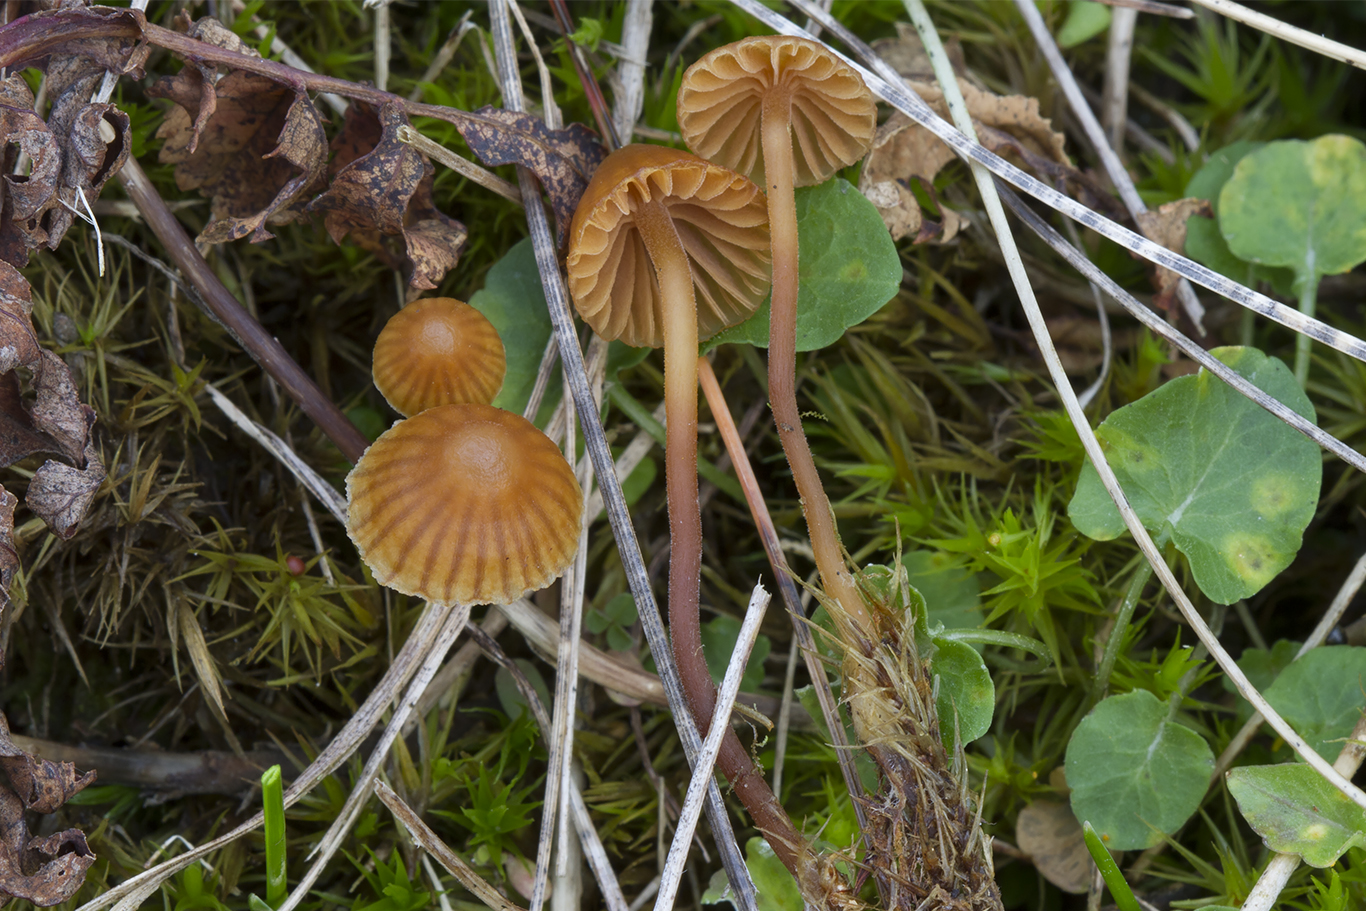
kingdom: Fungi
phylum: Basidiomycota
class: Agaricomycetes
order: Agaricales
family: Hymenogastraceae
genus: Galerina
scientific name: Galerina atkinsoniana
